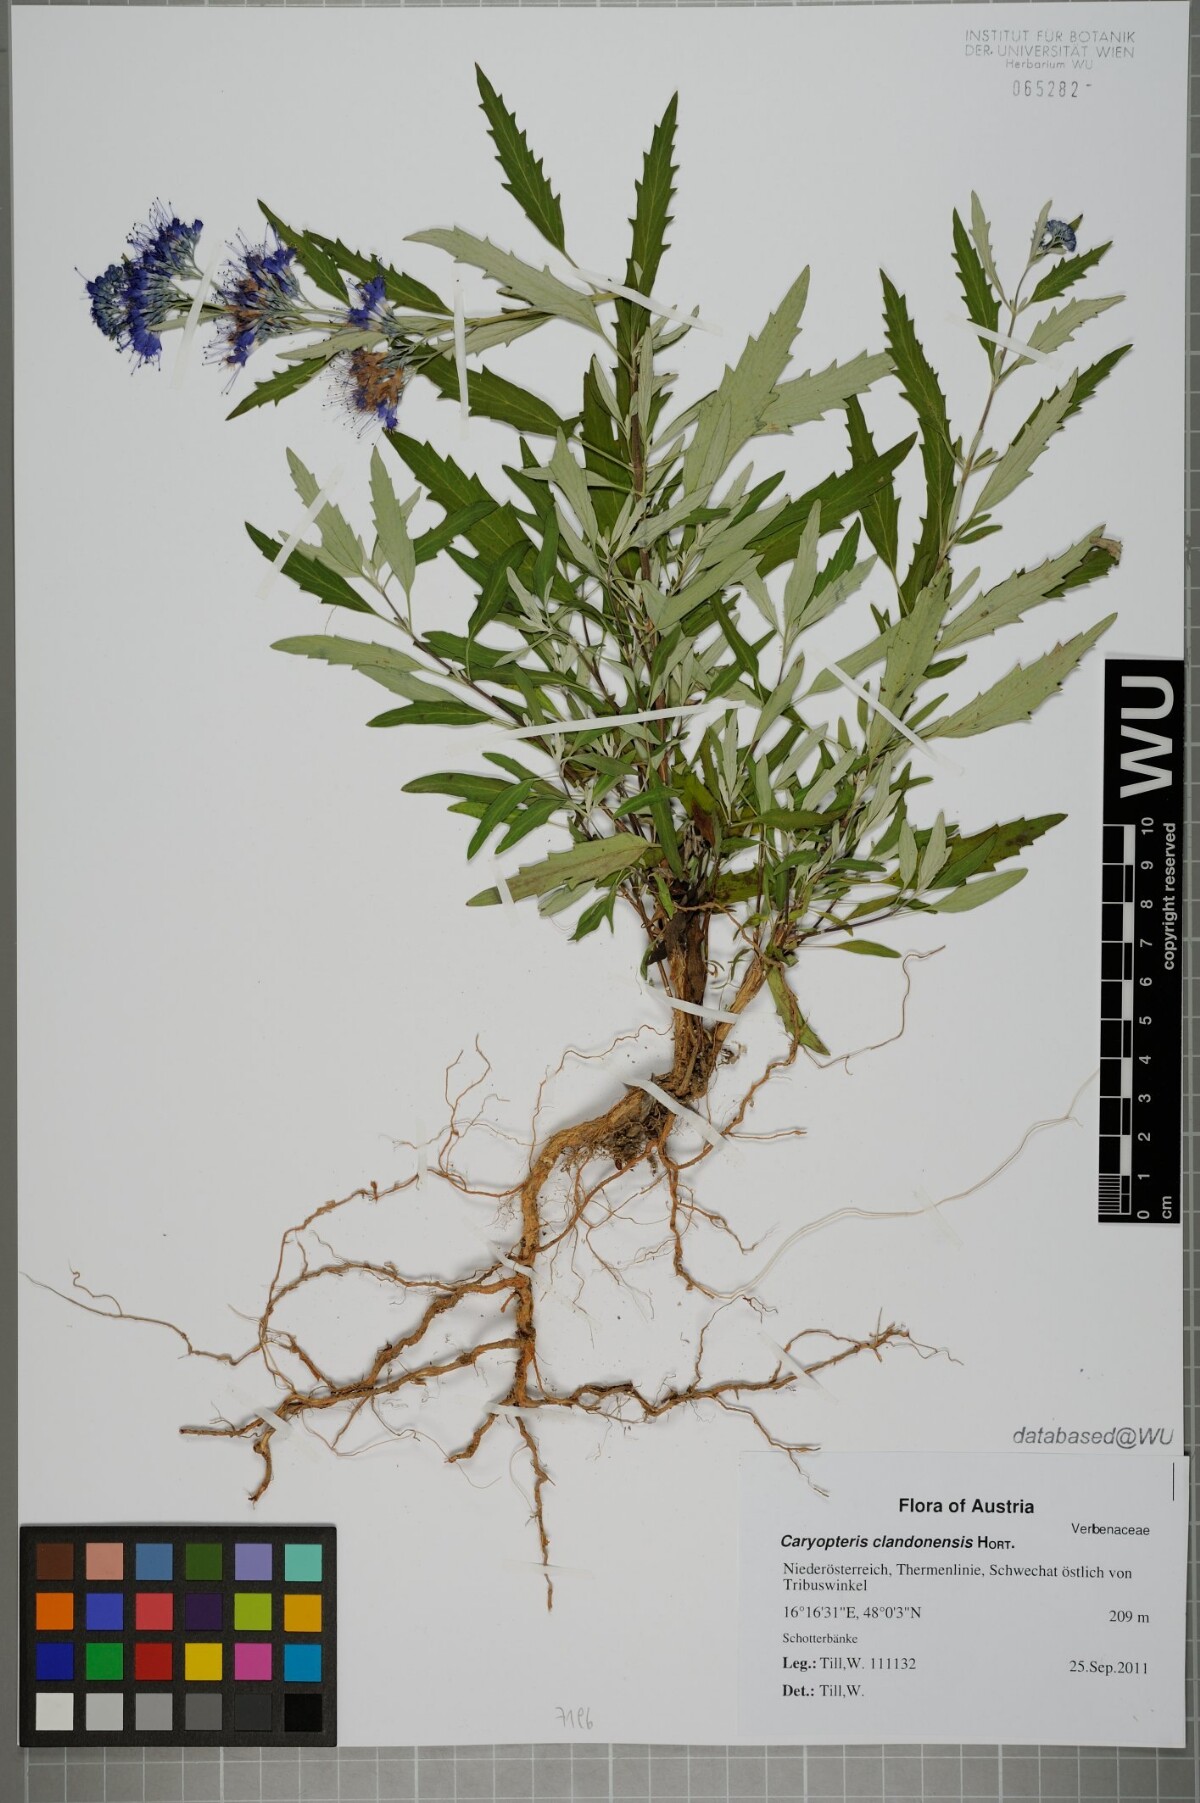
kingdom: Plantae
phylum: Tracheophyta
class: Magnoliopsida
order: Lamiales
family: Lamiaceae
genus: Caryopteris
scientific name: Caryopteris clandonensis
